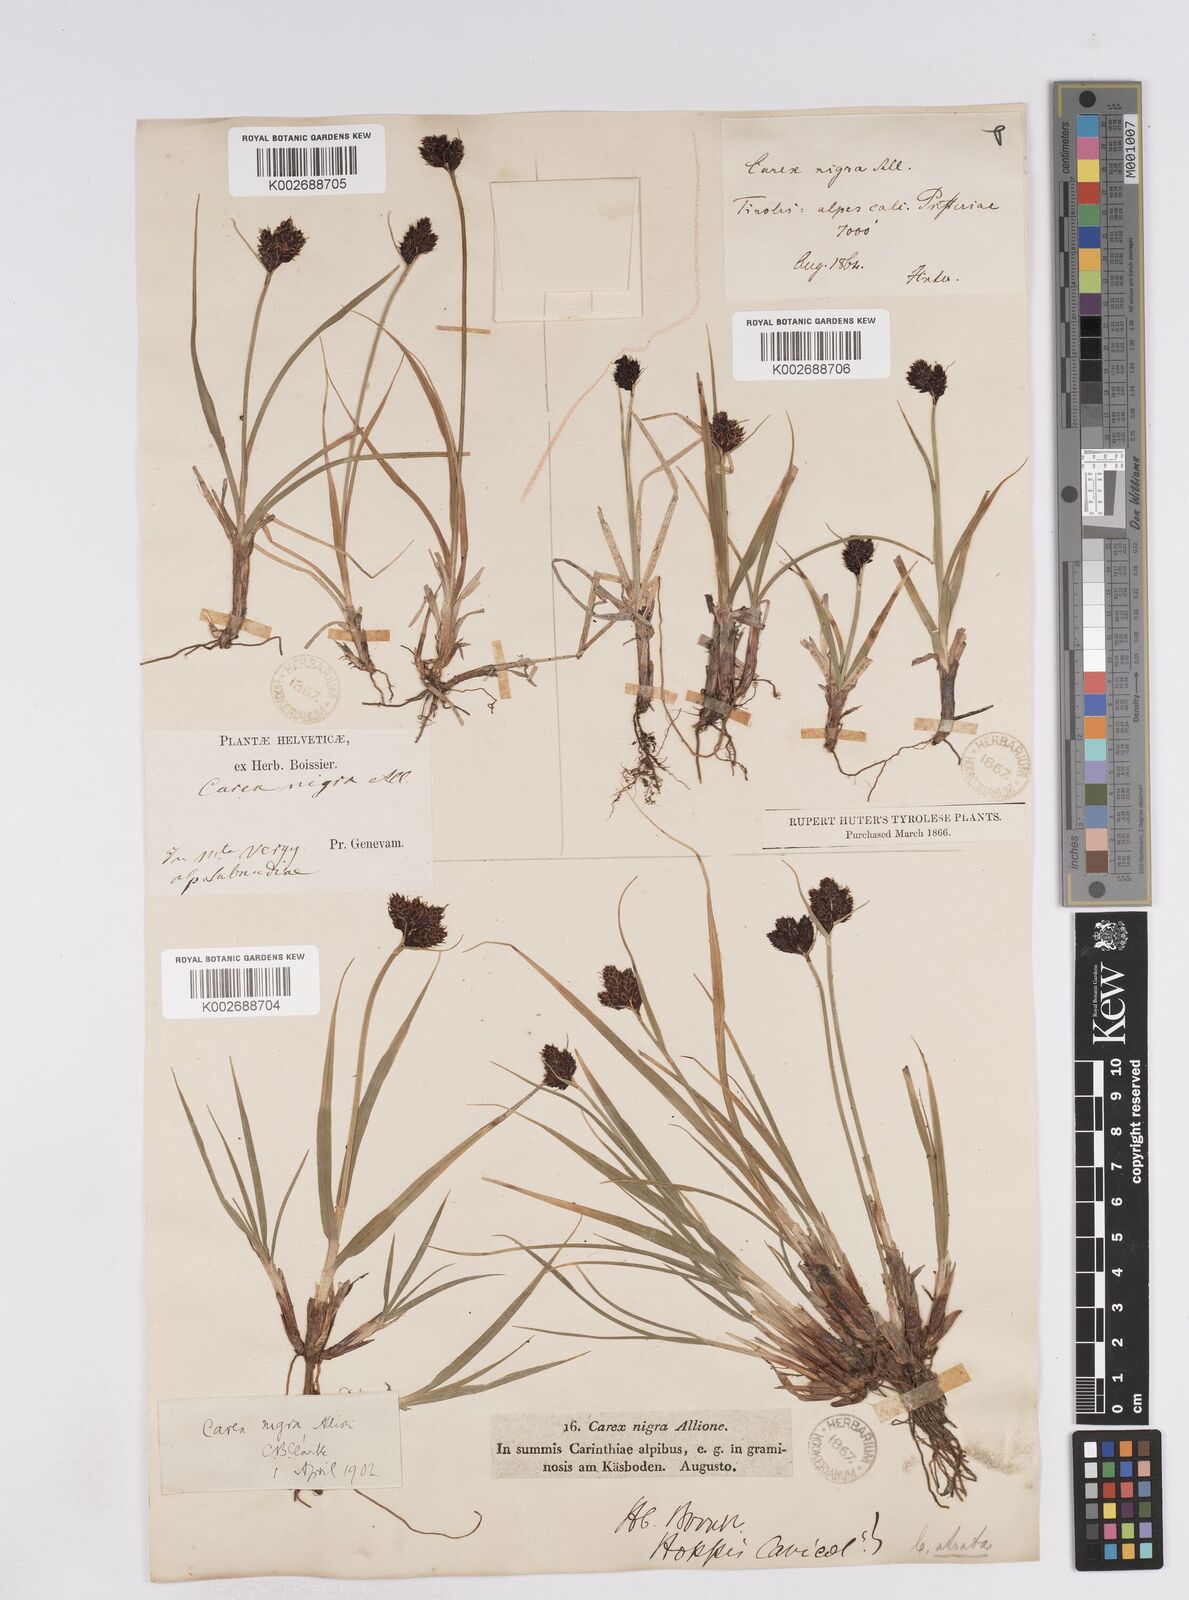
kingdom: Plantae
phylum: Tracheophyta
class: Liliopsida
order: Poales
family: Cyperaceae
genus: Carex
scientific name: Carex parviflora
